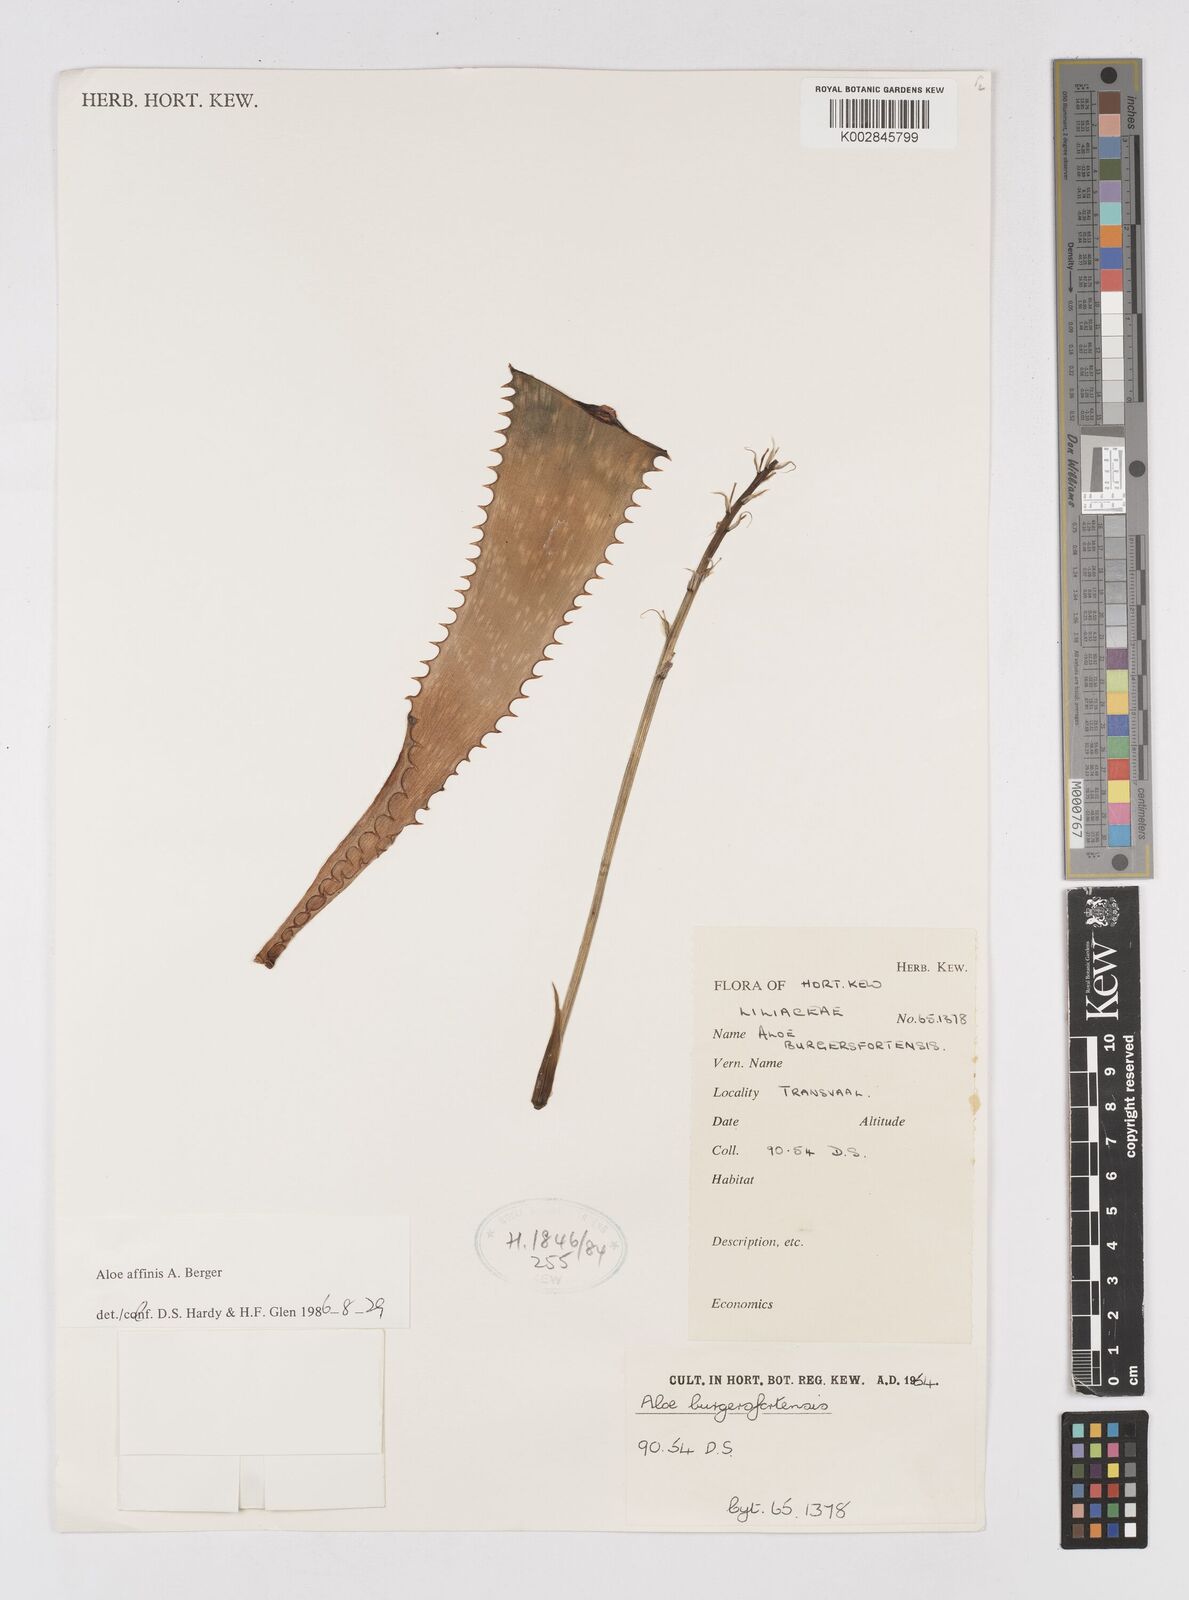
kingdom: Plantae
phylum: Tracheophyta
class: Liliopsida
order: Asparagales
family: Asphodelaceae
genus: Aloe
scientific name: Aloe affinis
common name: Spotted aloe
